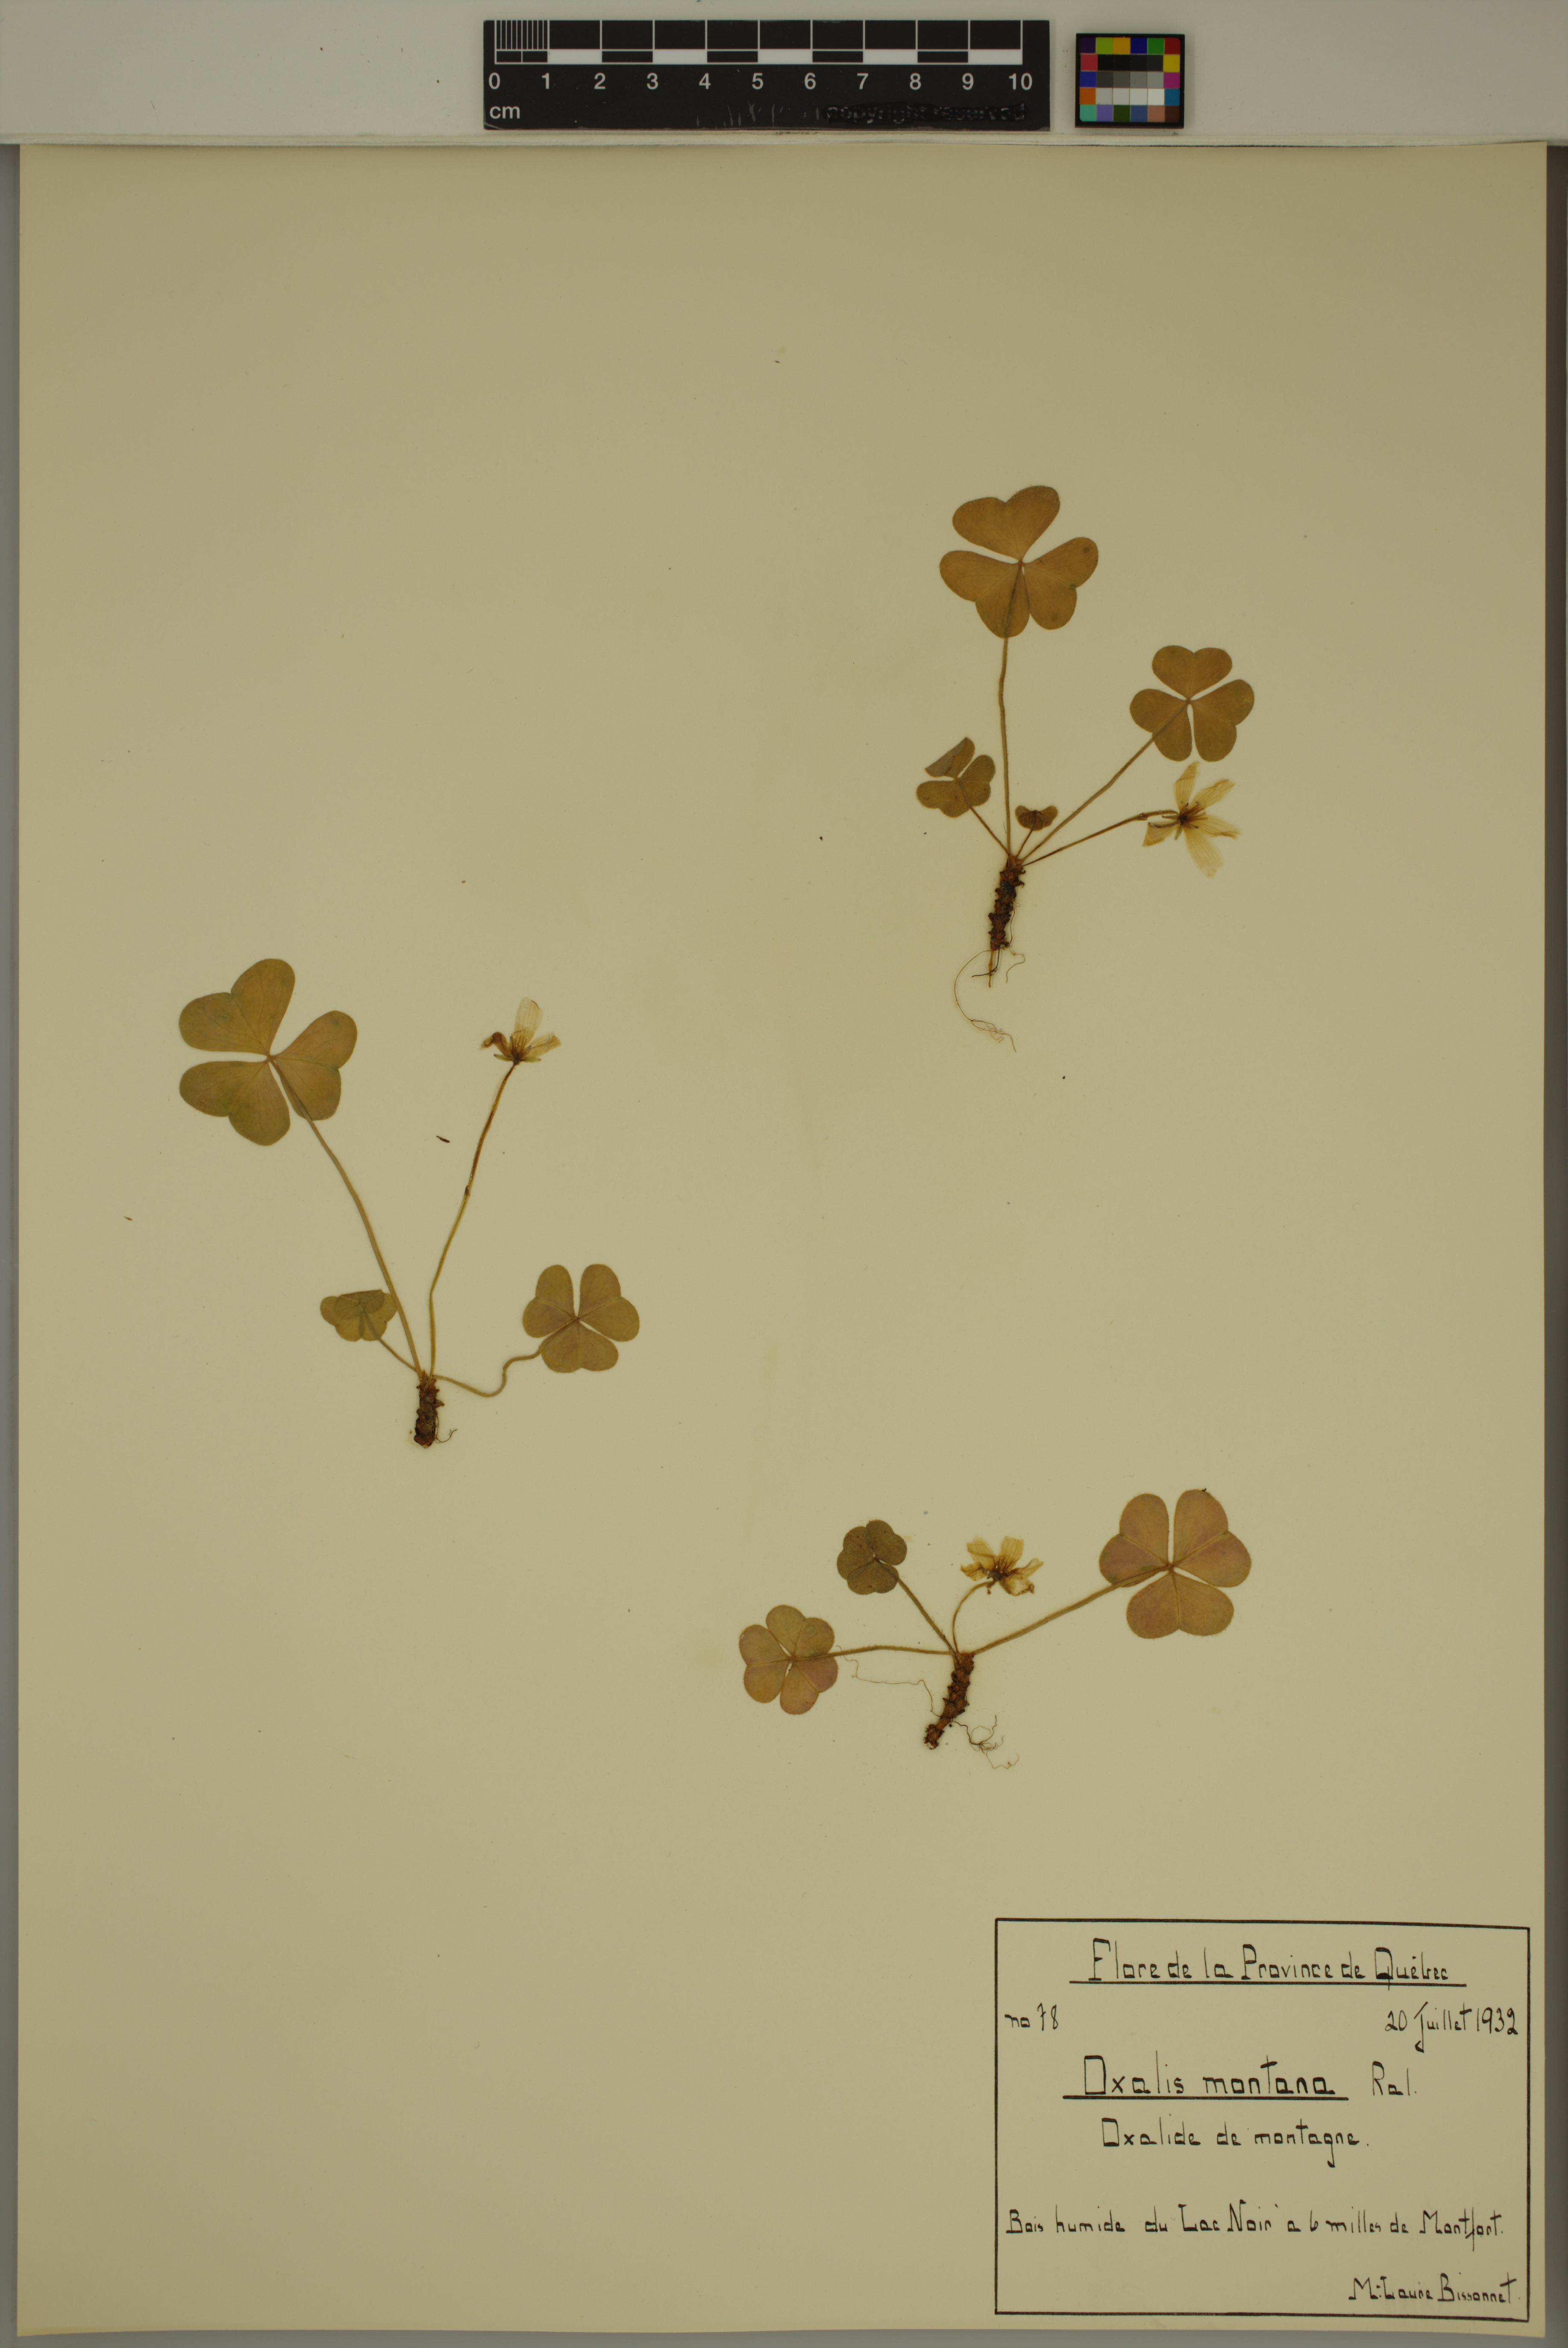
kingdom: Plantae
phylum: Tracheophyta
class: Magnoliopsida
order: Oxalidales
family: Oxalidaceae
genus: Oxalis
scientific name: Oxalis montana
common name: American wood-sorrel
